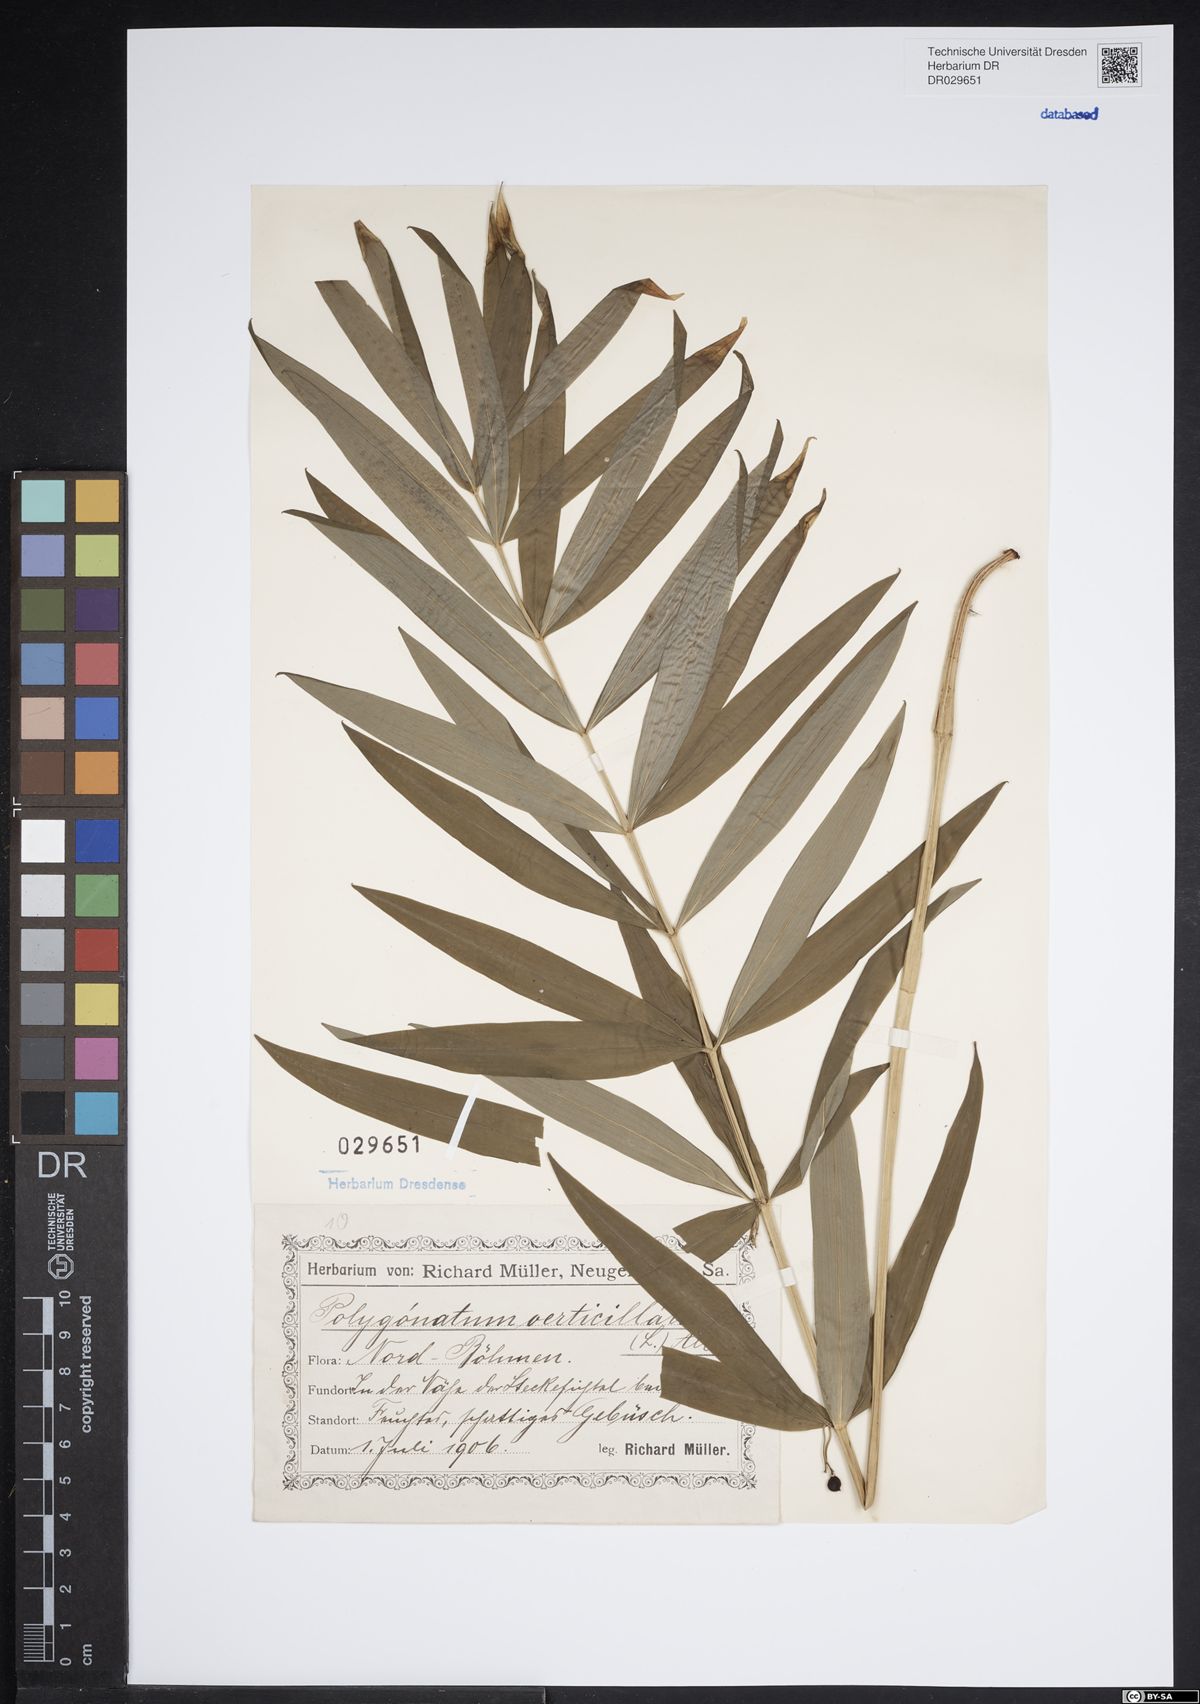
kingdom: Plantae
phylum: Tracheophyta
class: Liliopsida
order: Asparagales
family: Asparagaceae
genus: Polygonatum
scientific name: Polygonatum verticillatum
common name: Whorled solomon's-seal
